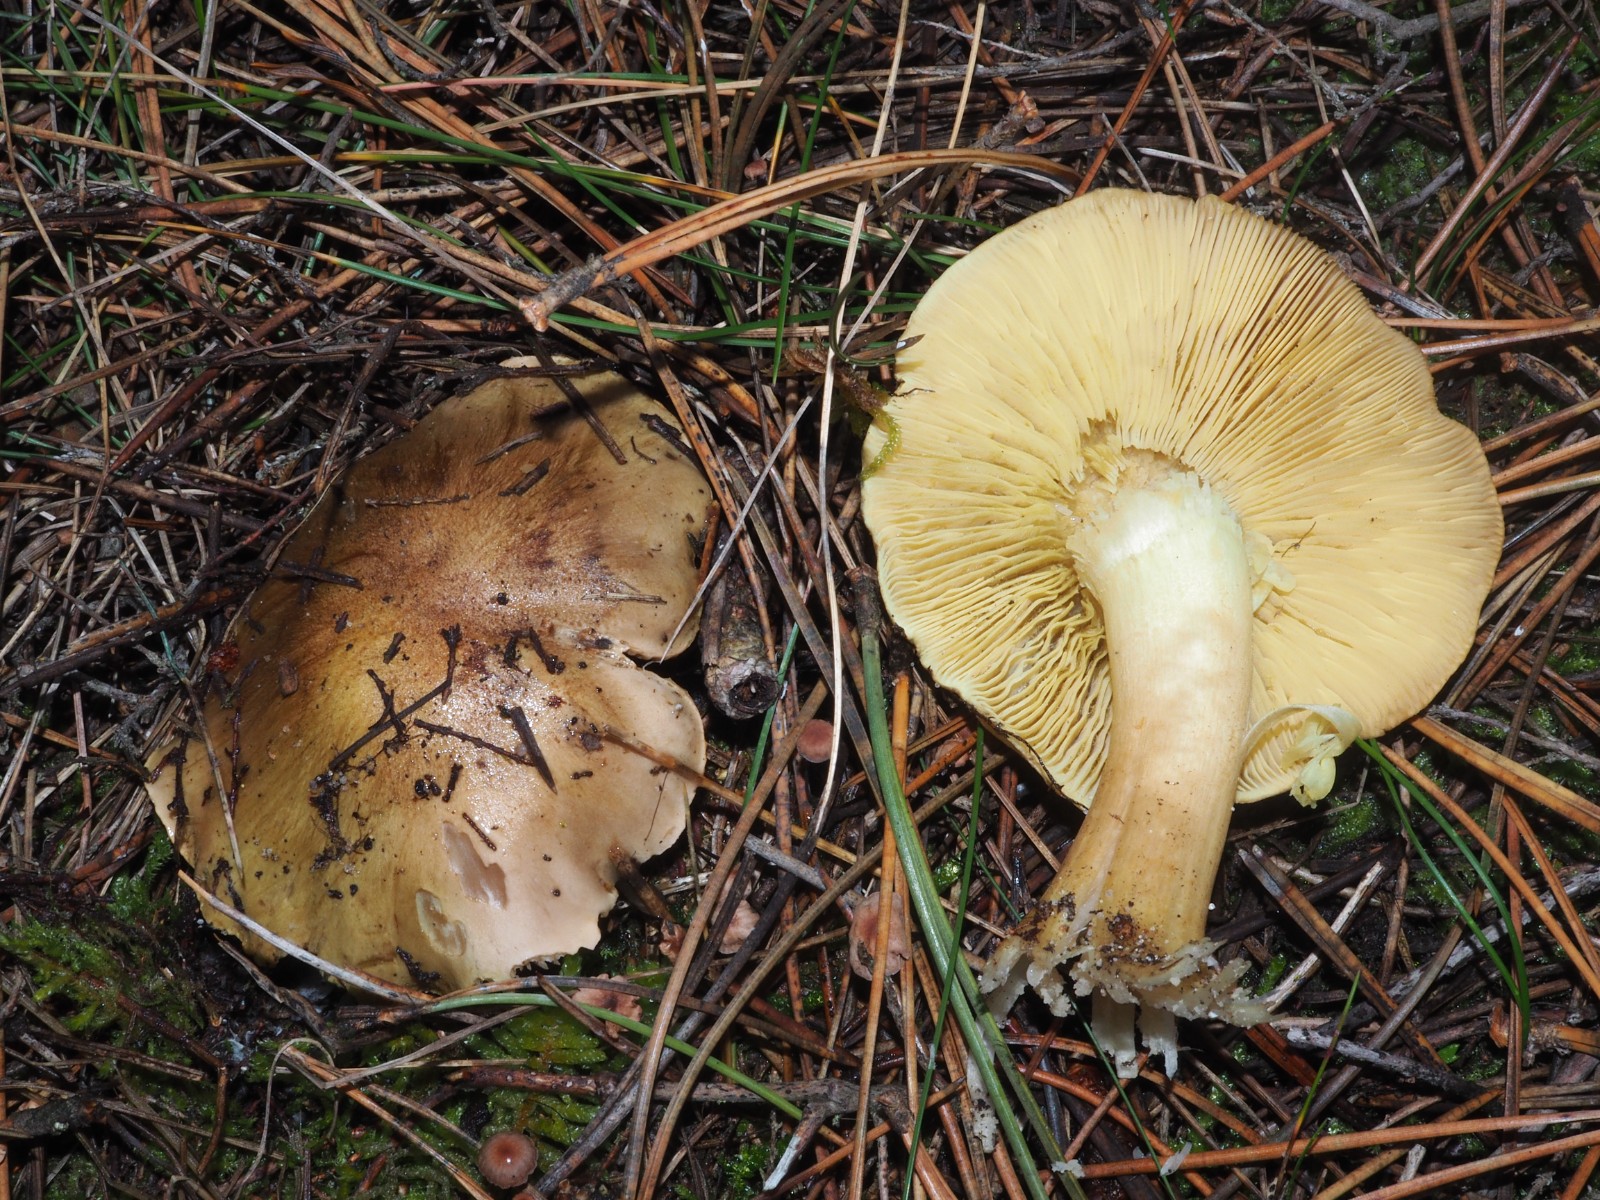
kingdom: Fungi
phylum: Basidiomycota
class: Agaricomycetes
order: Agaricales
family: Tricholomataceae
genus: Tricholoma
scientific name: Tricholoma equestre
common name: ægte ridderhat
